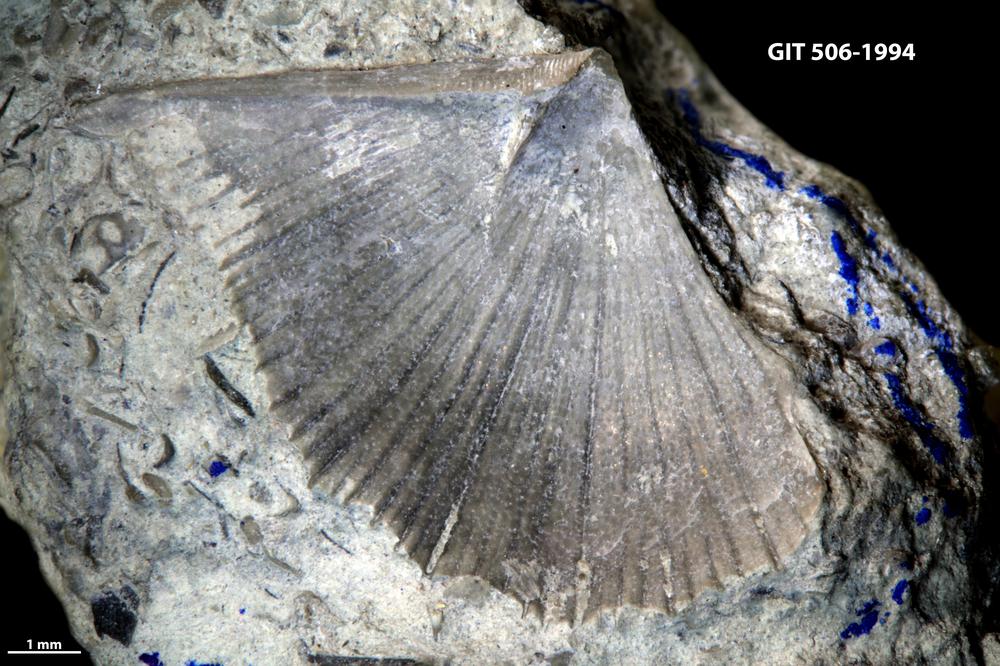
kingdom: Animalia
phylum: Brachiopoda
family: Strophomenidae
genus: Leptaena
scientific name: Leptaena rhomboidalis
